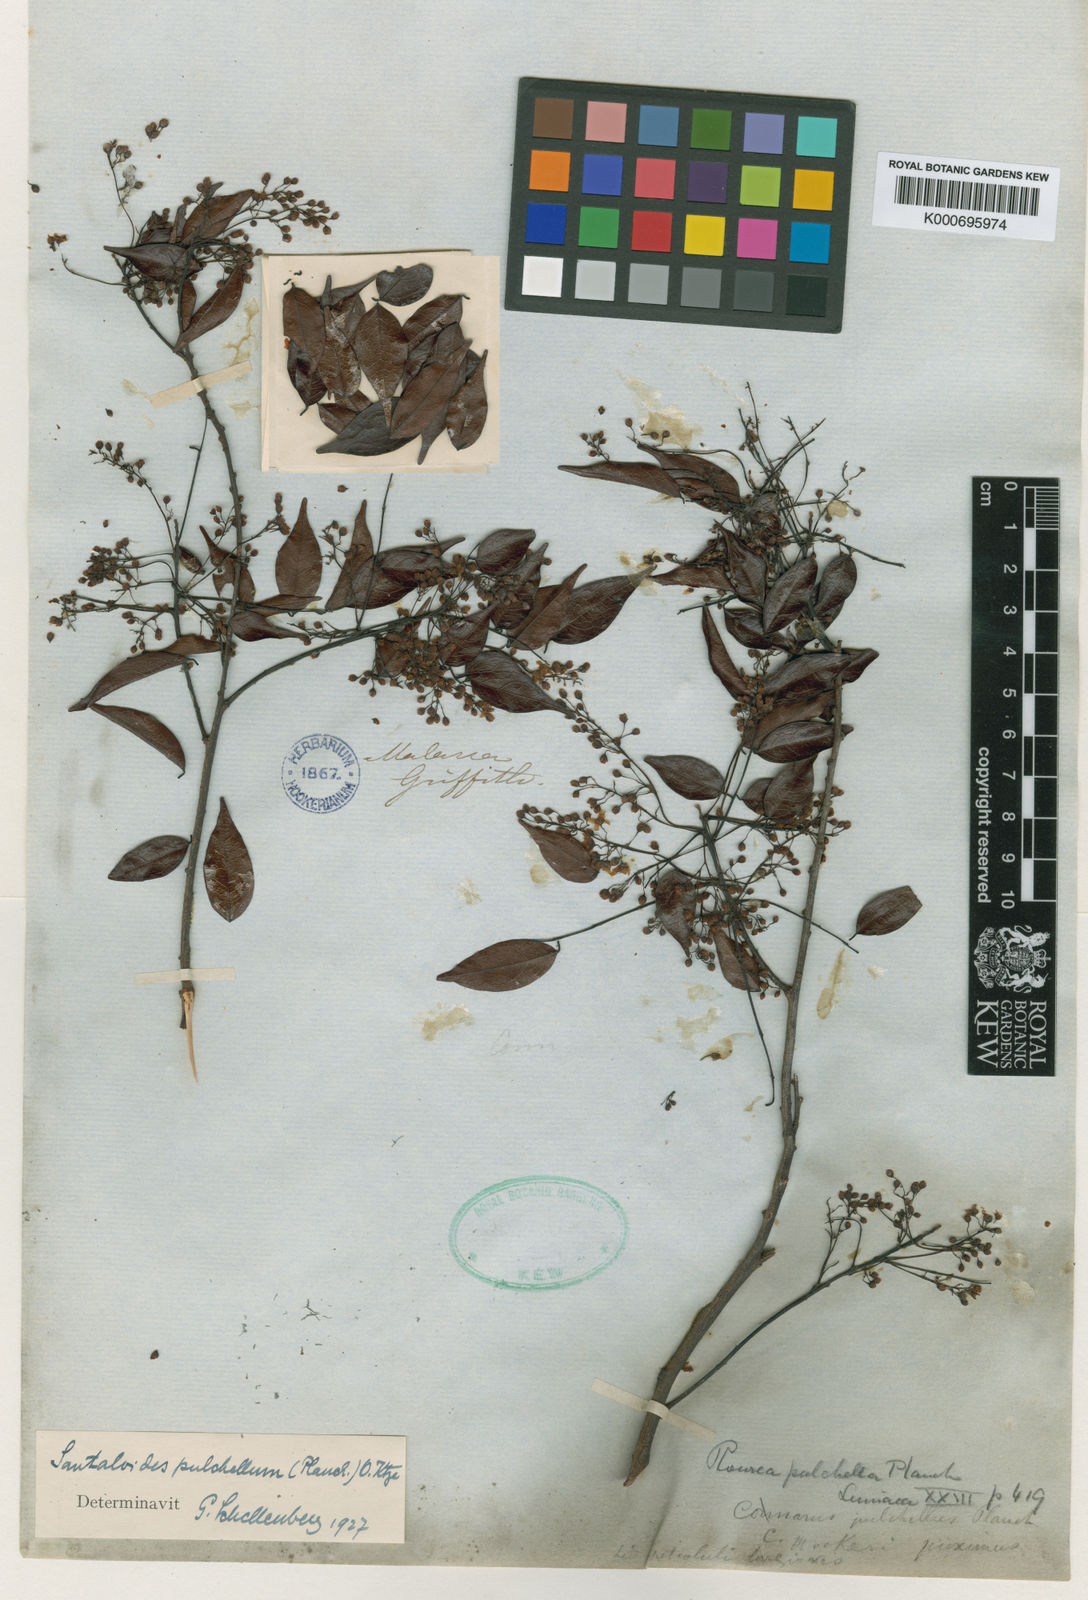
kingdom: Plantae
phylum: Tracheophyta
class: Magnoliopsida
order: Oxalidales
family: Connaraceae
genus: Rourea
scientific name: Rourea
